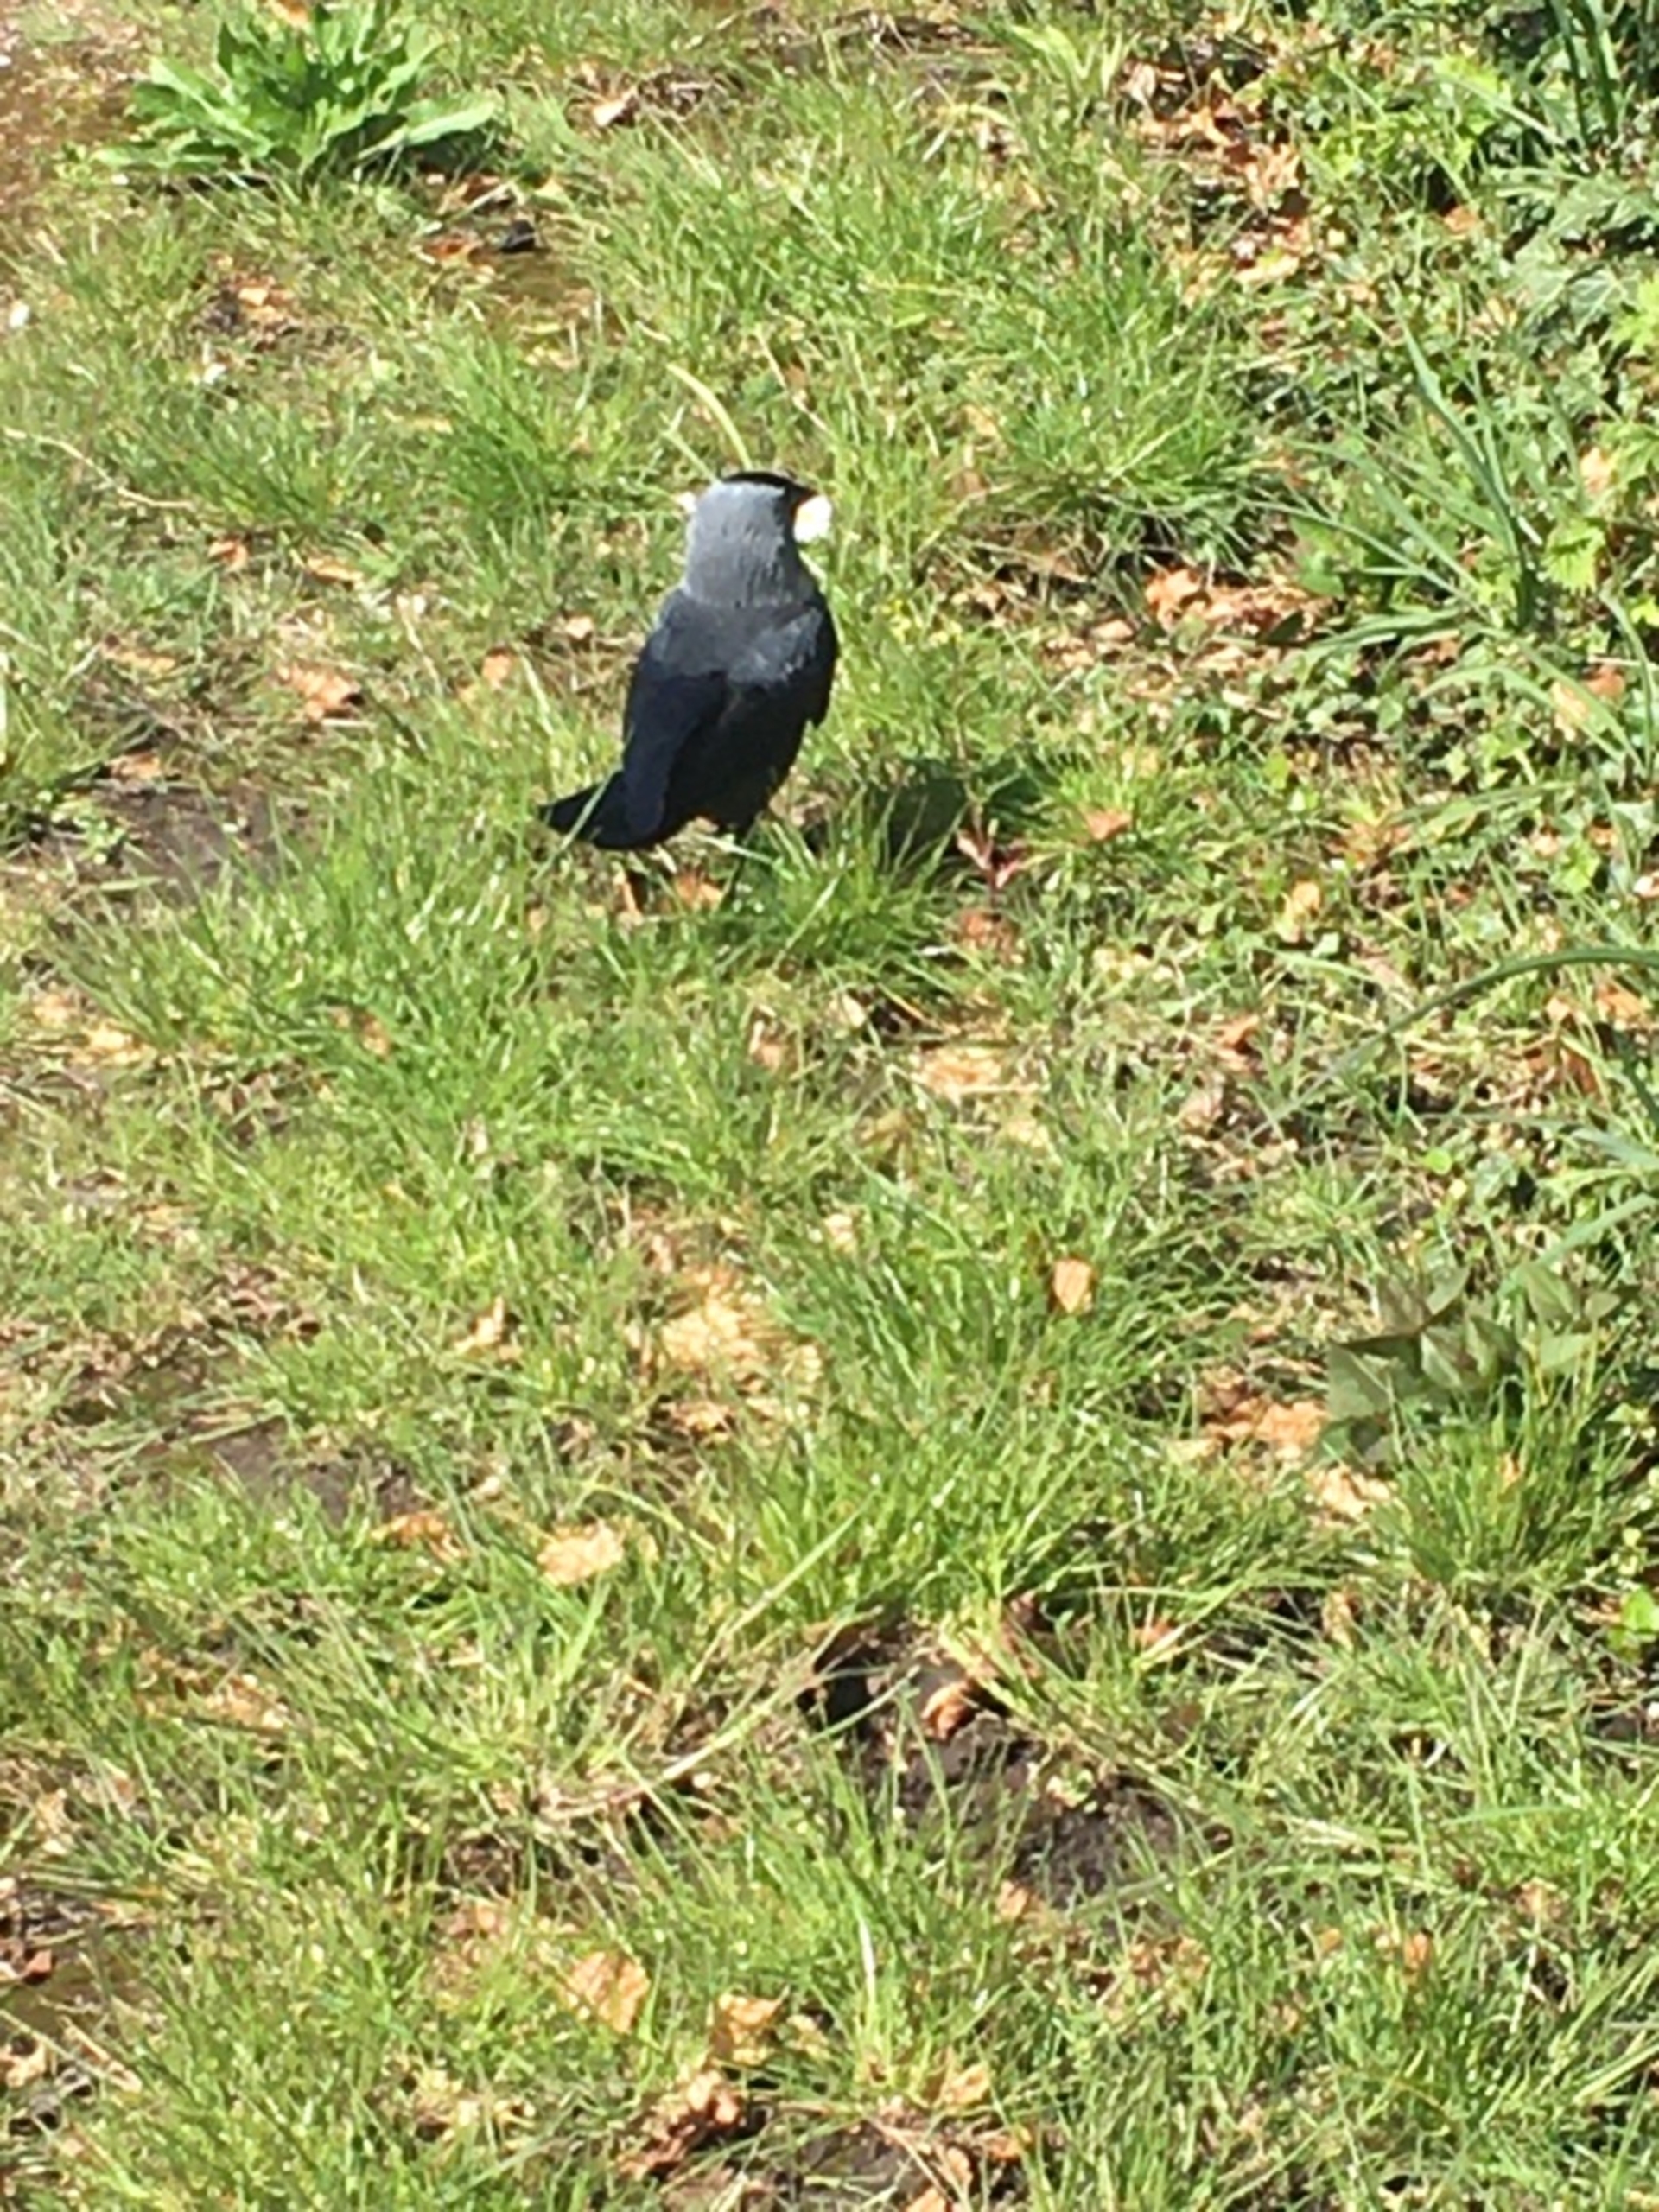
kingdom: Animalia
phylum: Chordata
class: Aves
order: Passeriformes
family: Corvidae
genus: Coloeus
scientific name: Coloeus monedula
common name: Allike
